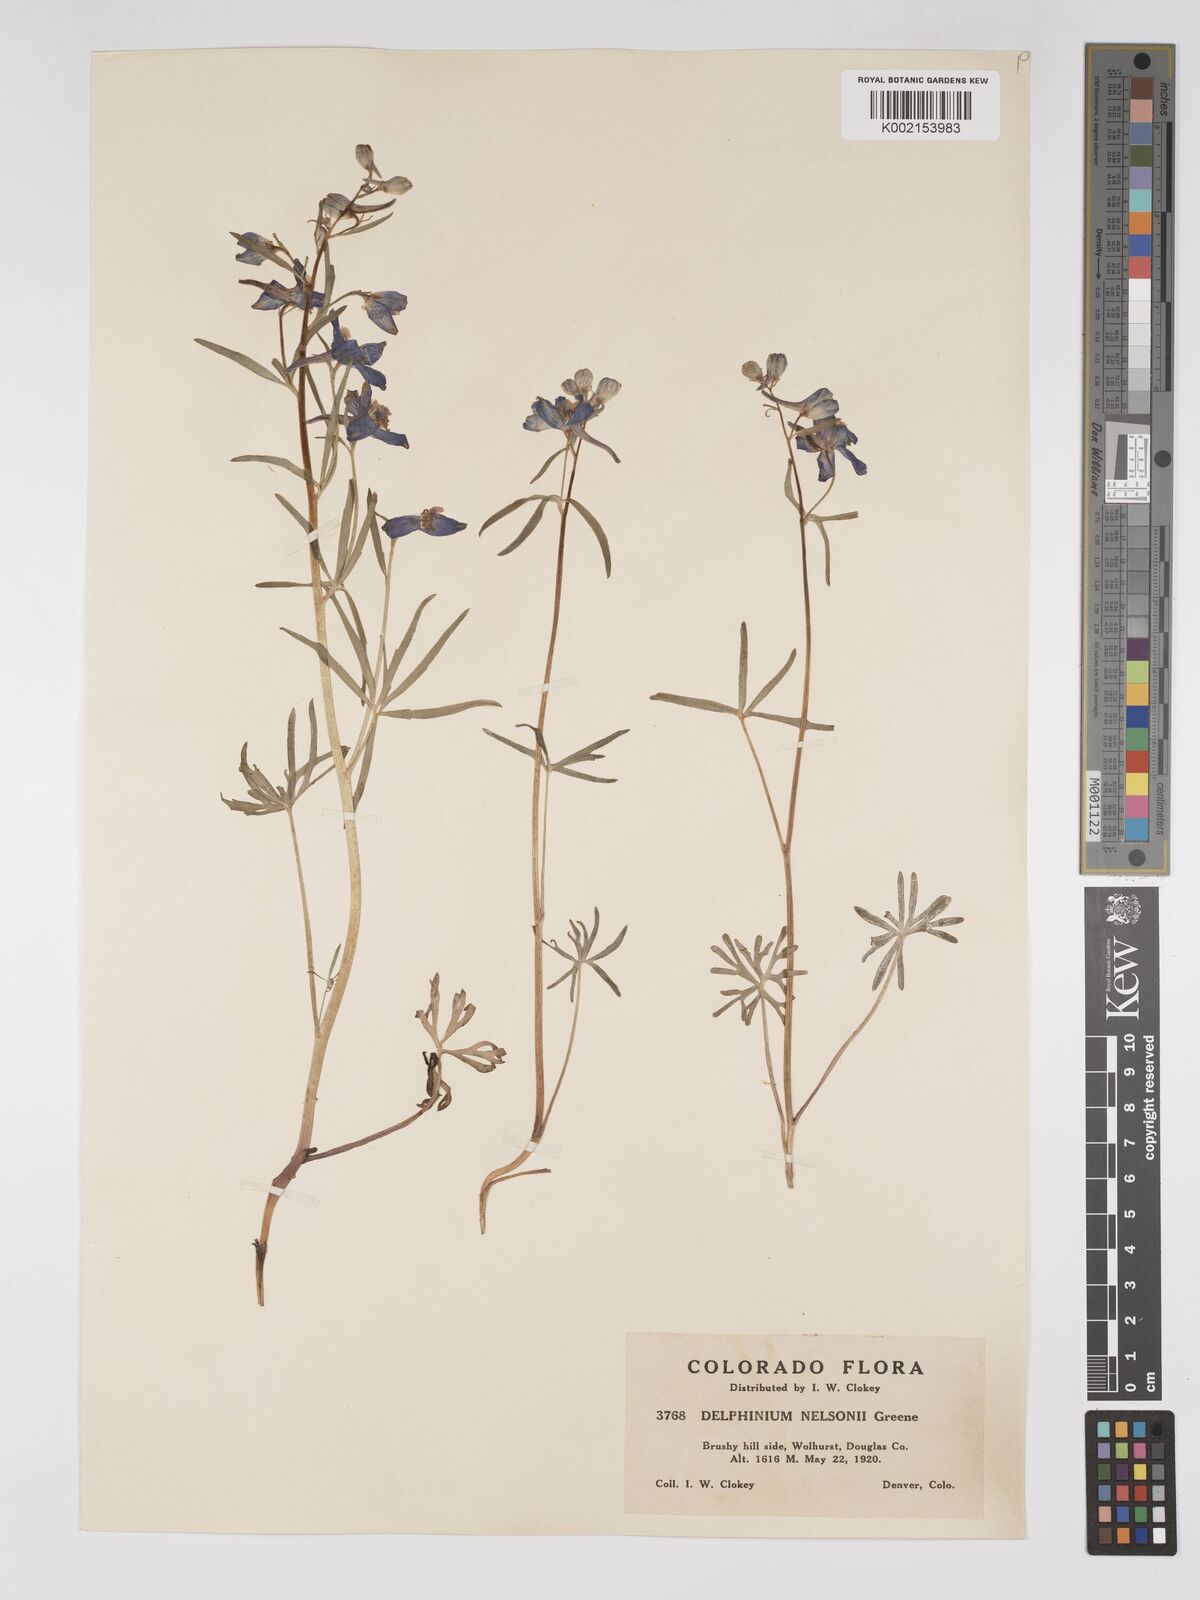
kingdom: Plantae
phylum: Tracheophyta
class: Magnoliopsida
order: Ranunculales
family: Ranunculaceae
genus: Delphinium
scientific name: Delphinium nuttallianum
